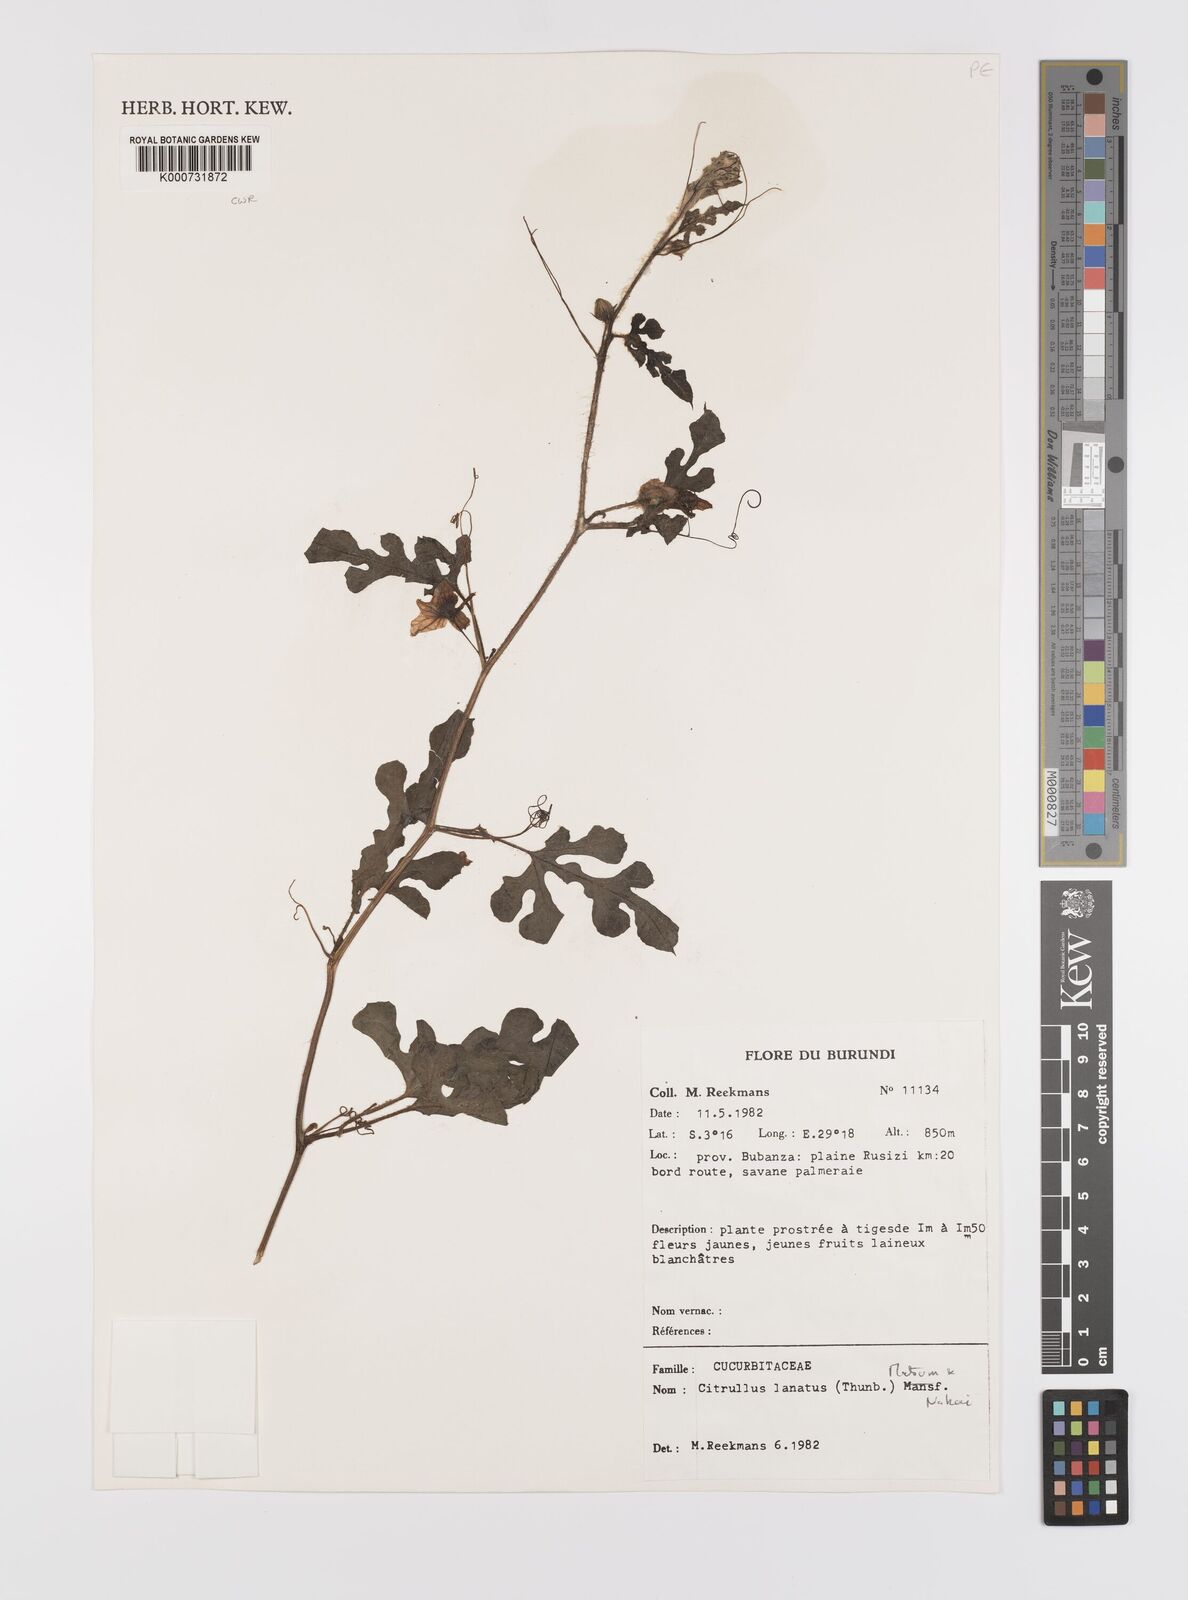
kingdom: Plantae
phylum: Tracheophyta
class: Magnoliopsida
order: Cucurbitales
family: Cucurbitaceae
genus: Citrullus
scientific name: Citrullus lanatus
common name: Watermelon
